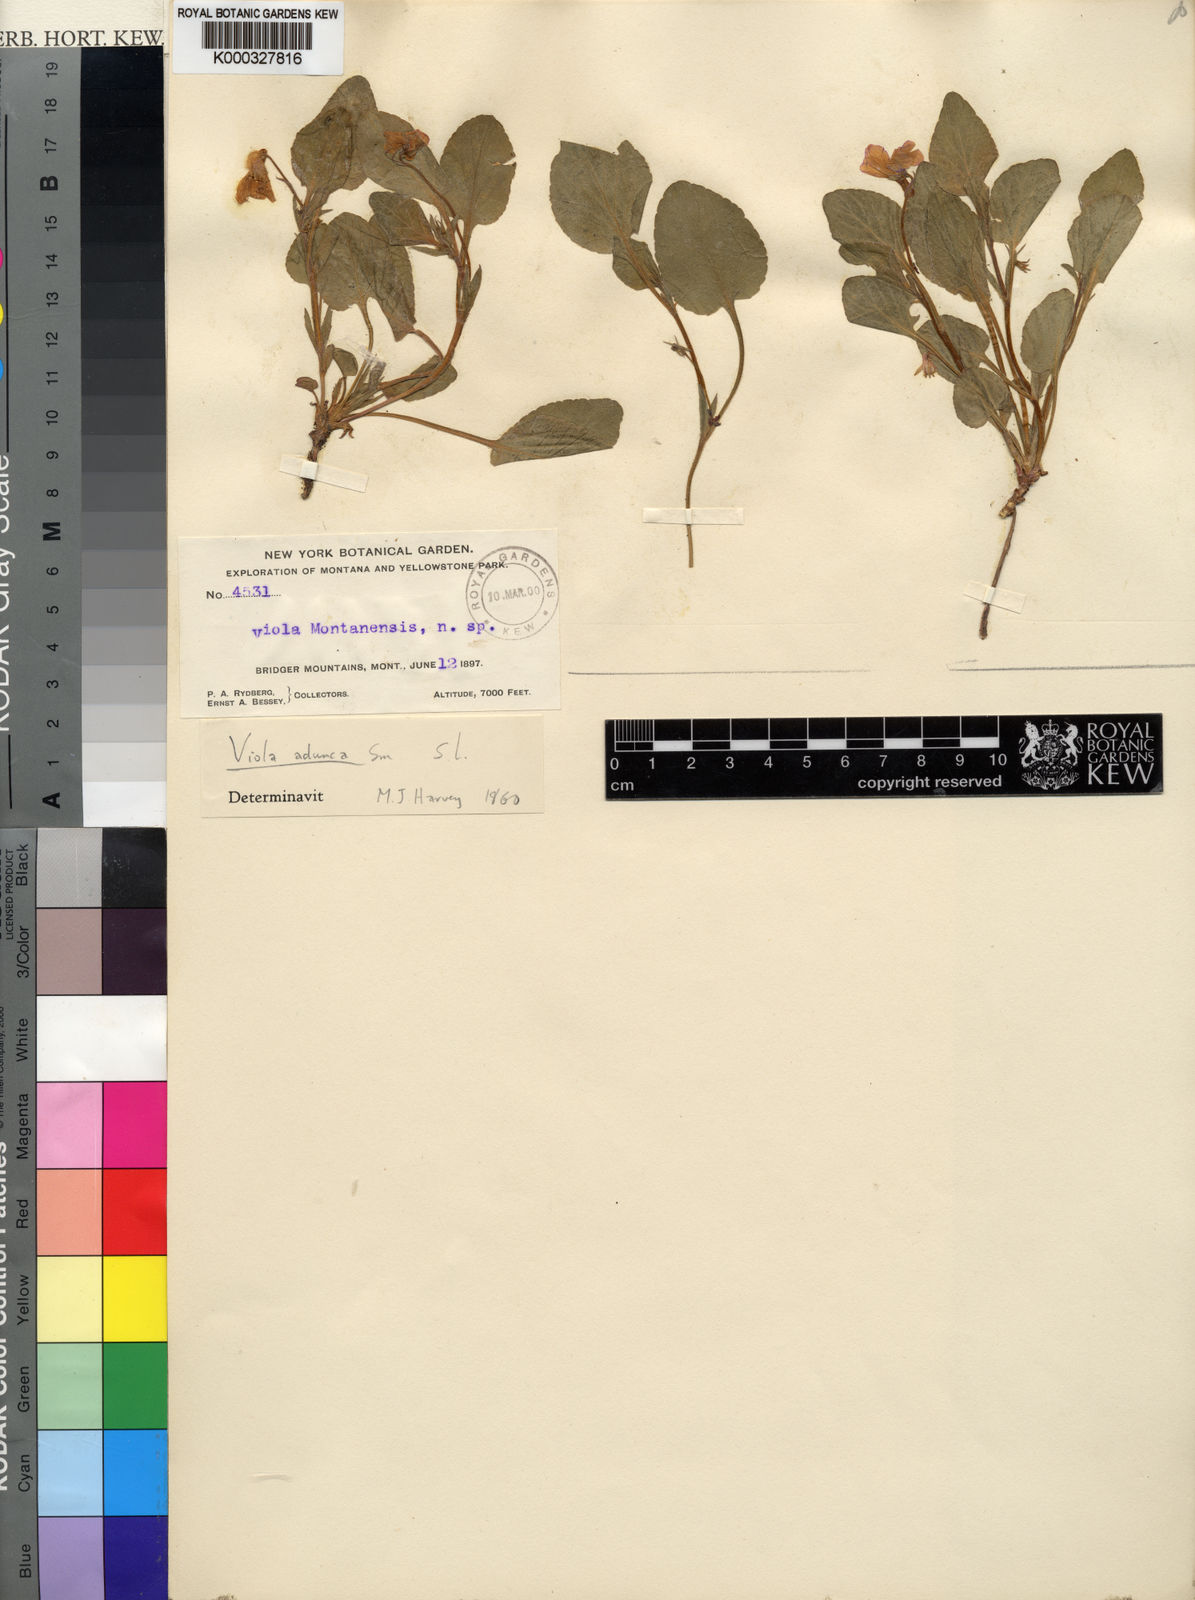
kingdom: Plantae
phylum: Tracheophyta
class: Magnoliopsida
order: Malpighiales
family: Violaceae
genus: Viola
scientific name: Viola adunca
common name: Sand violet
